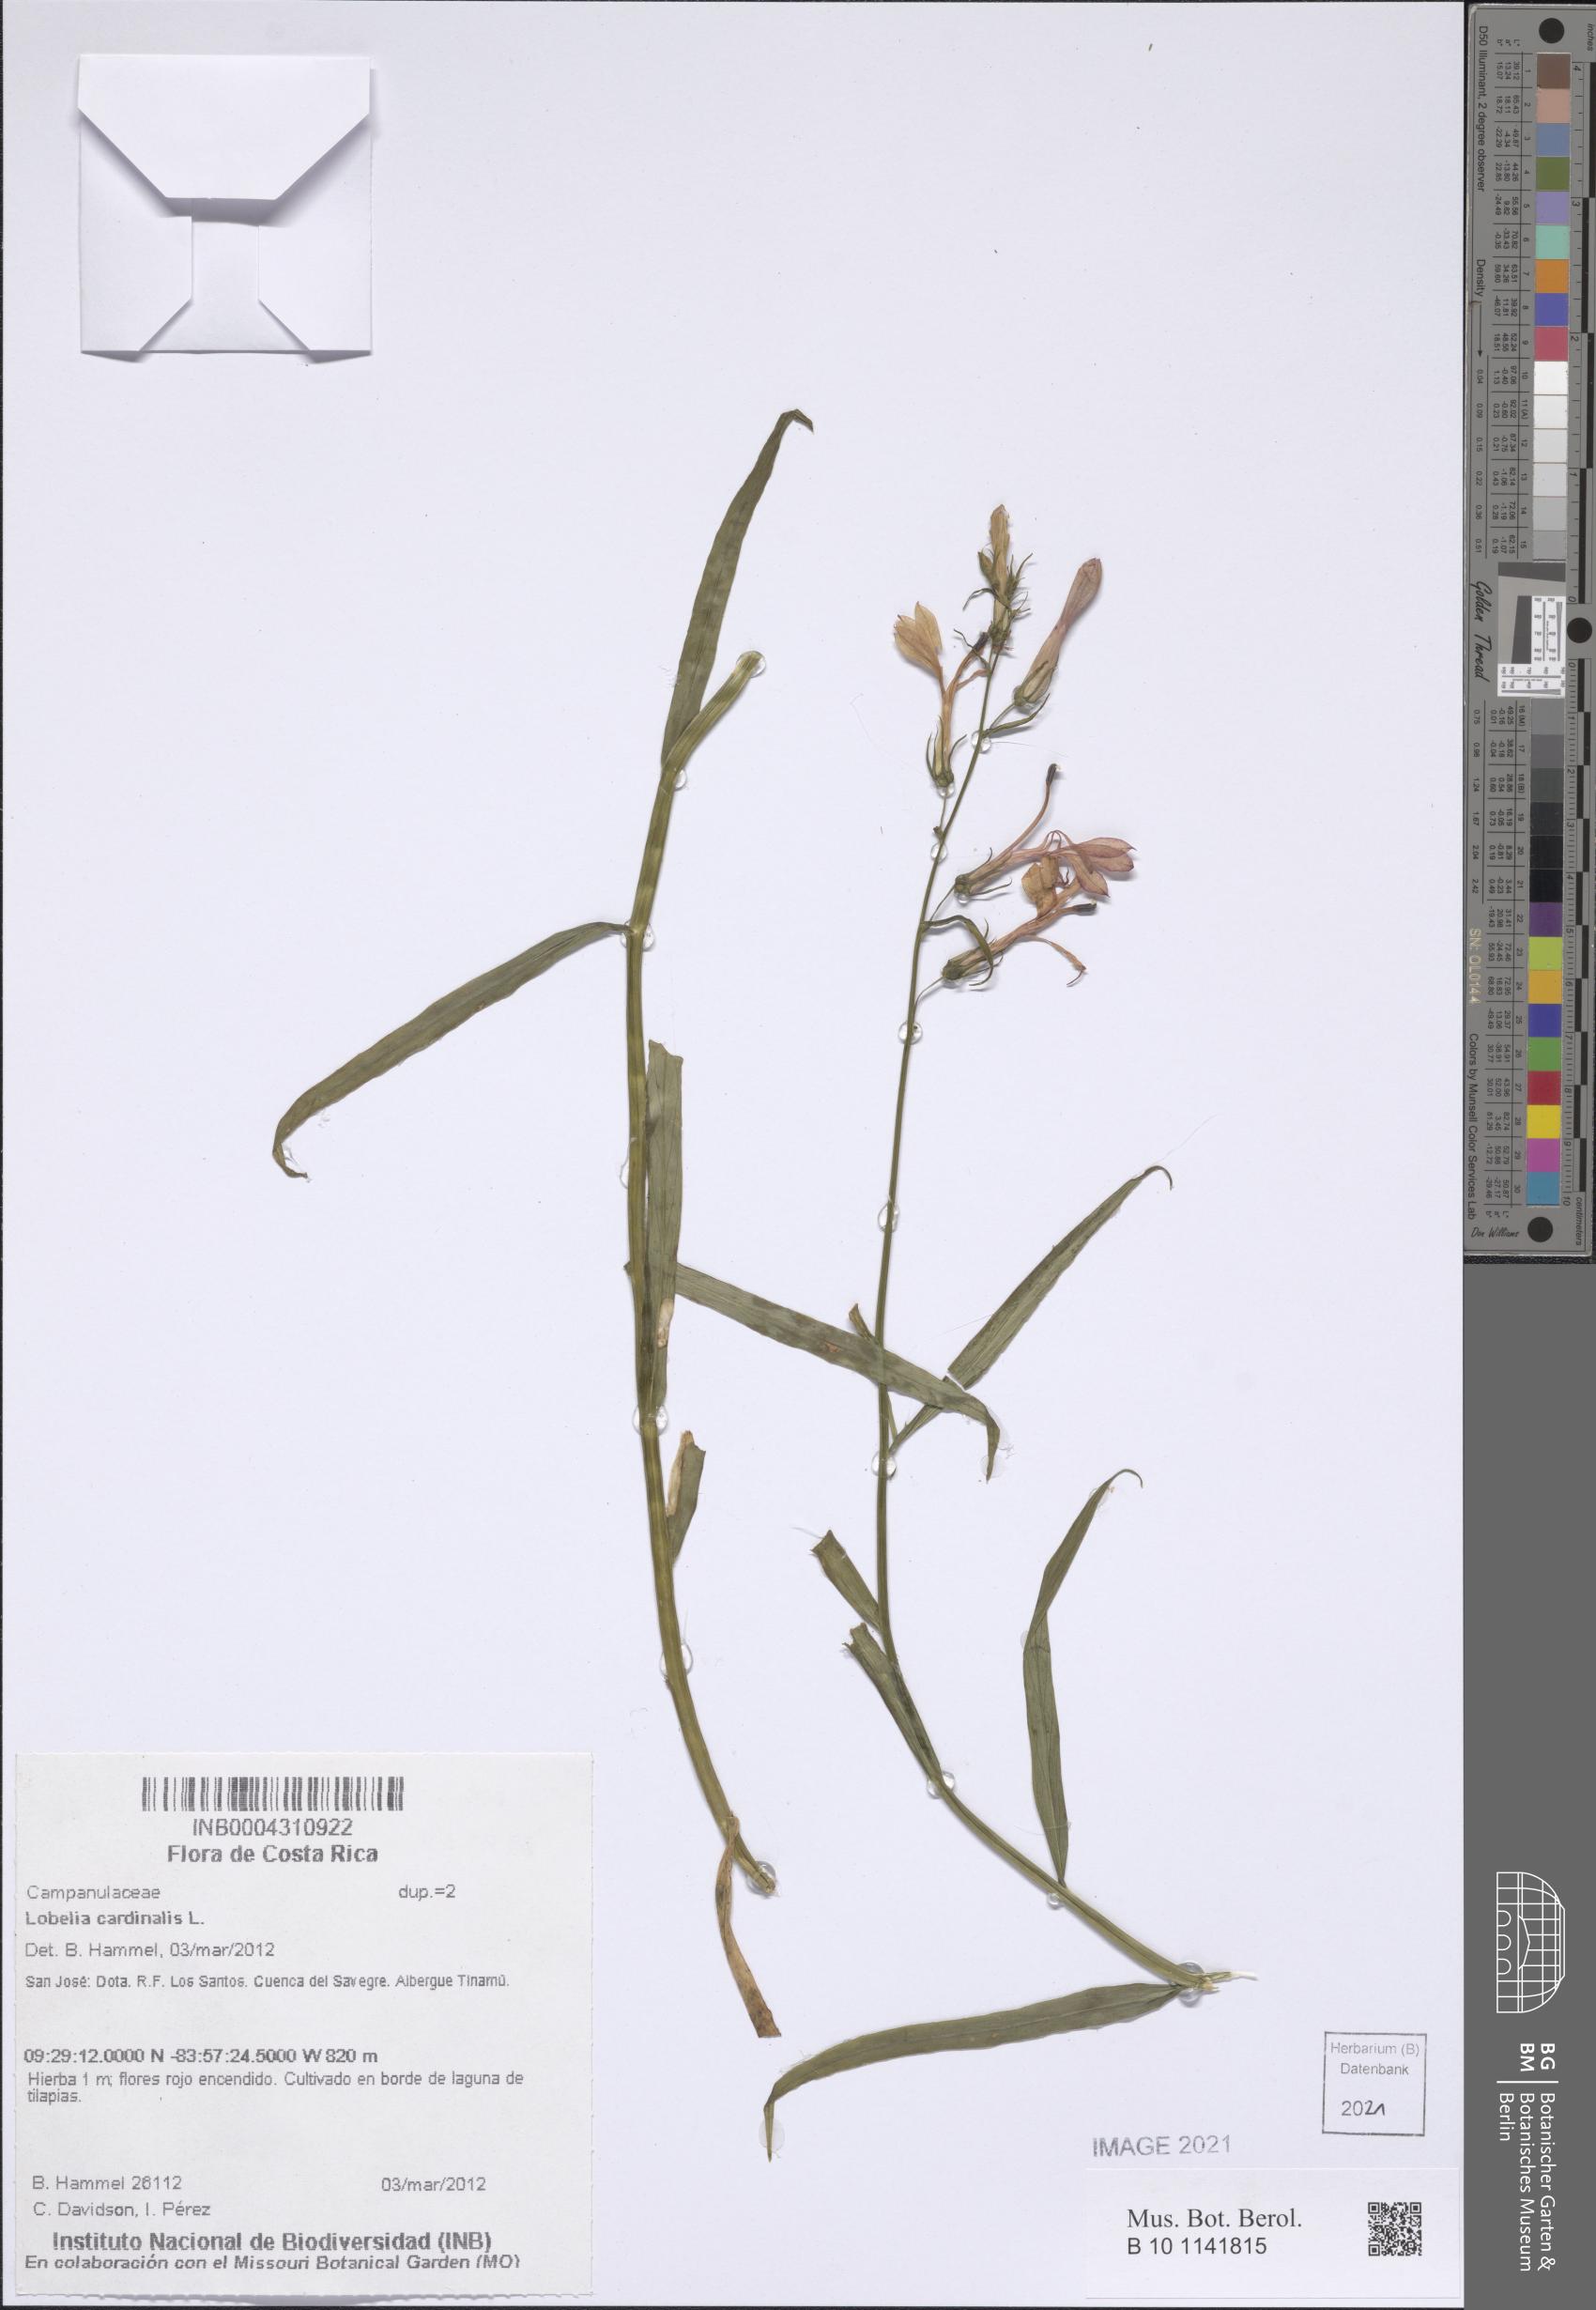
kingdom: Plantae
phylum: Tracheophyta
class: Magnoliopsida
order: Asterales
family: Campanulaceae
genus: Lobelia
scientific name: Lobelia cardinalis
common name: Cardinal flower
